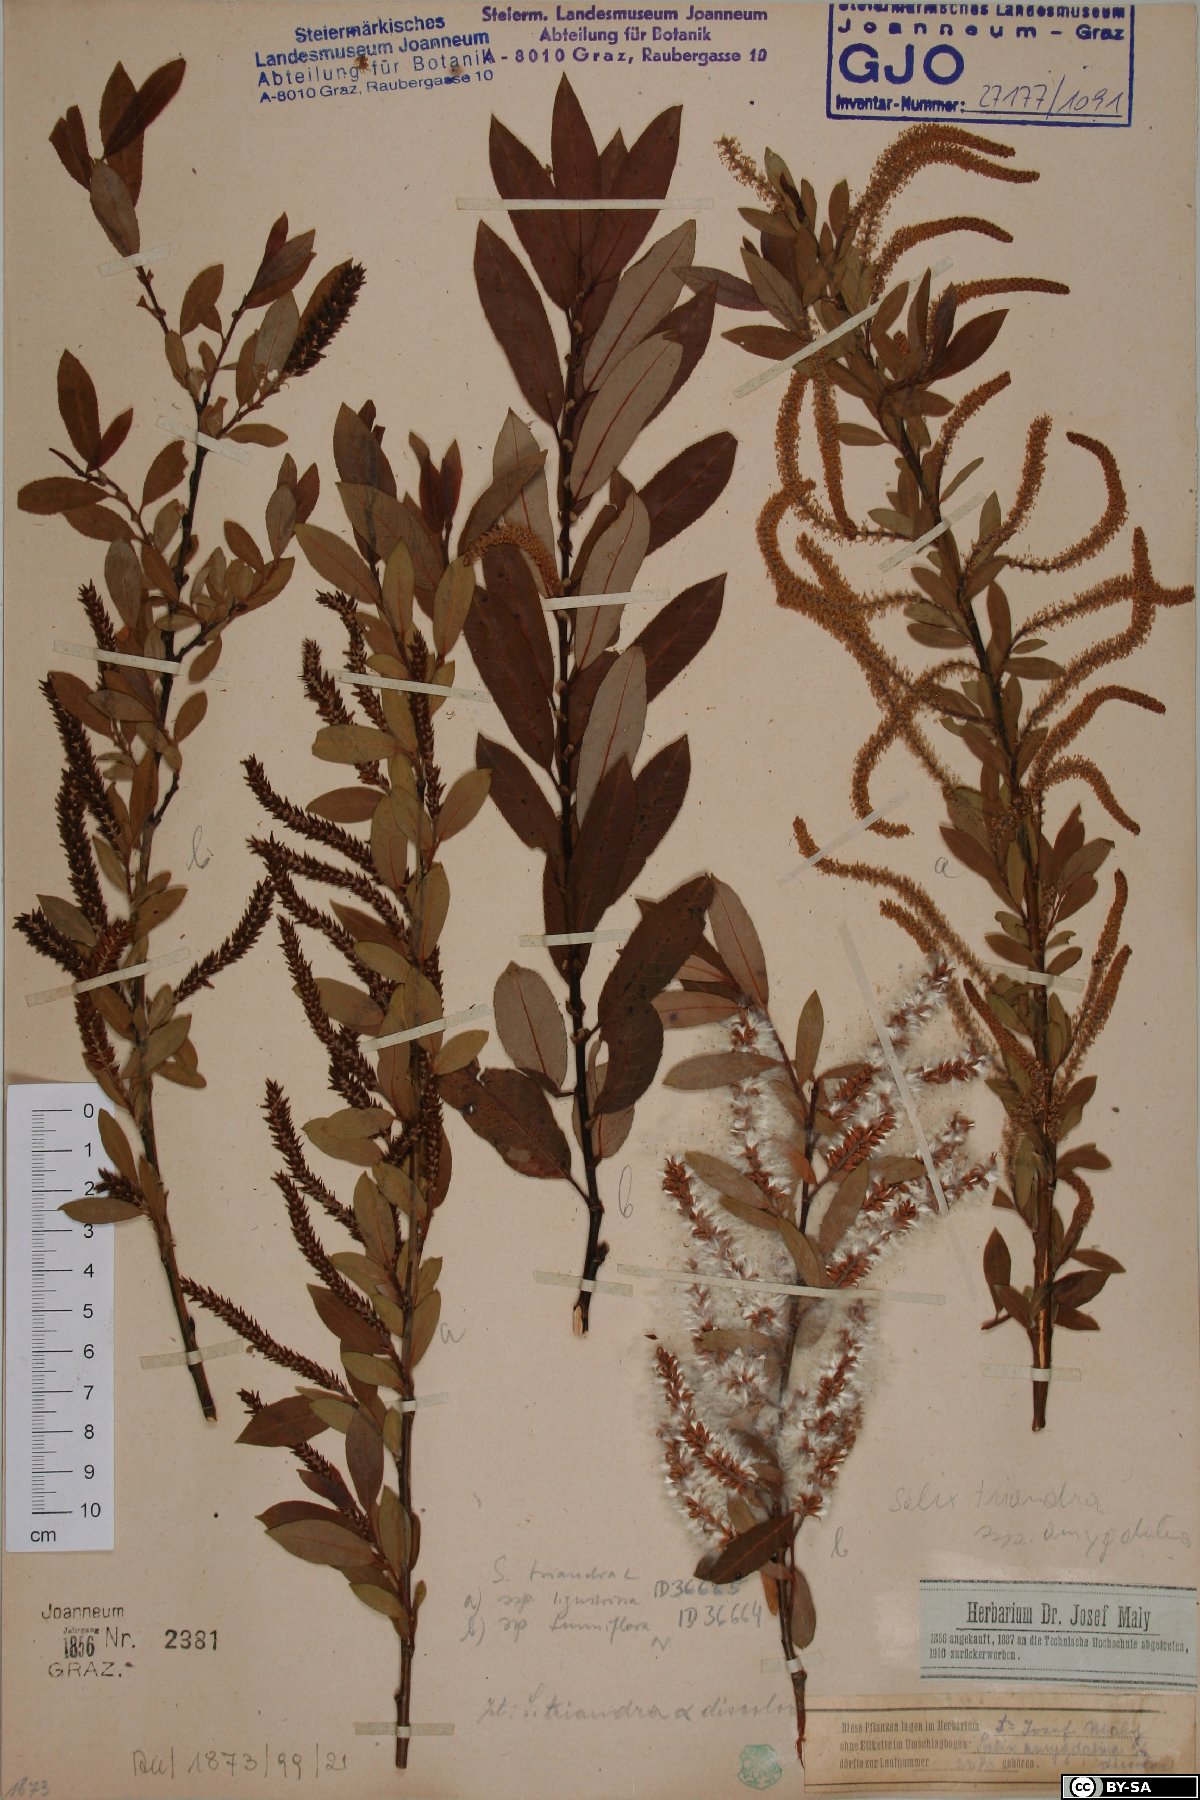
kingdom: Plantae
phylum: Tracheophyta
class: Magnoliopsida
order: Malpighiales
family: Salicaceae
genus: Salix
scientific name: Salix triandra
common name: Almond willow
